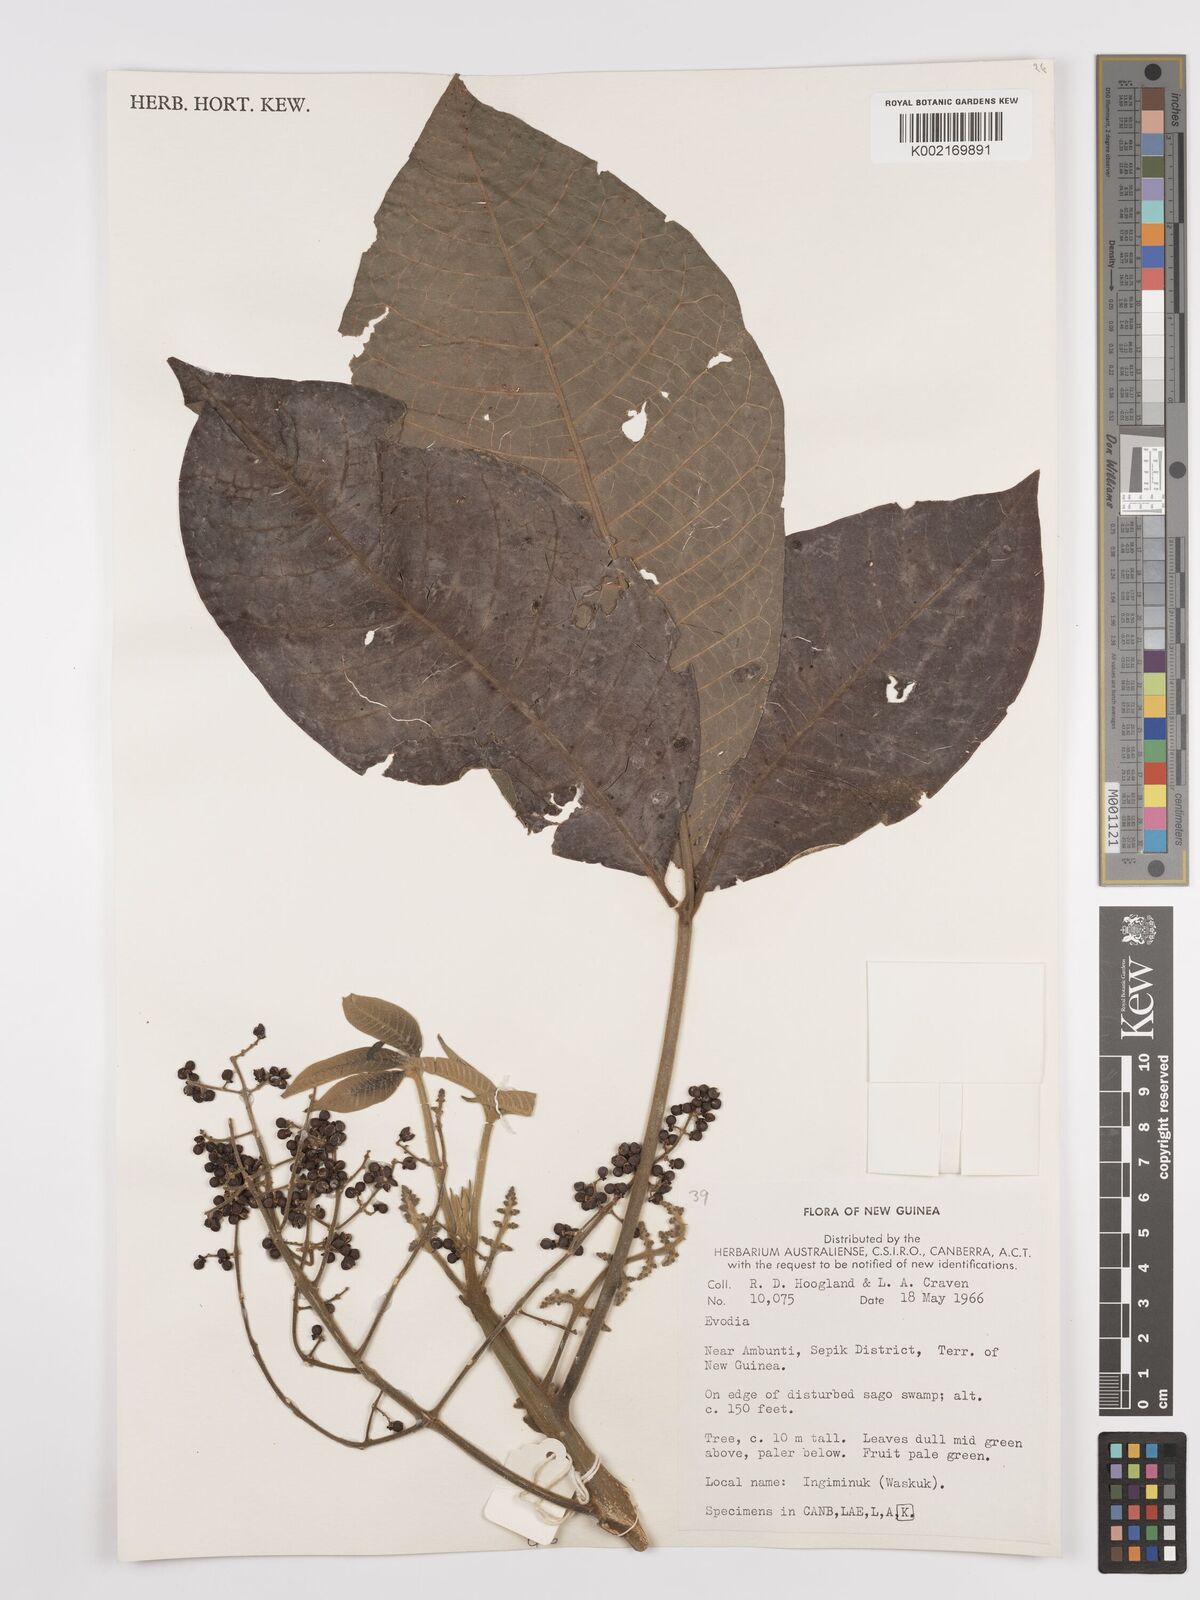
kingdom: Plantae
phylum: Tracheophyta
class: Magnoliopsida
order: Sapindales
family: Rutaceae
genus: Euodia
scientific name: Euodia
